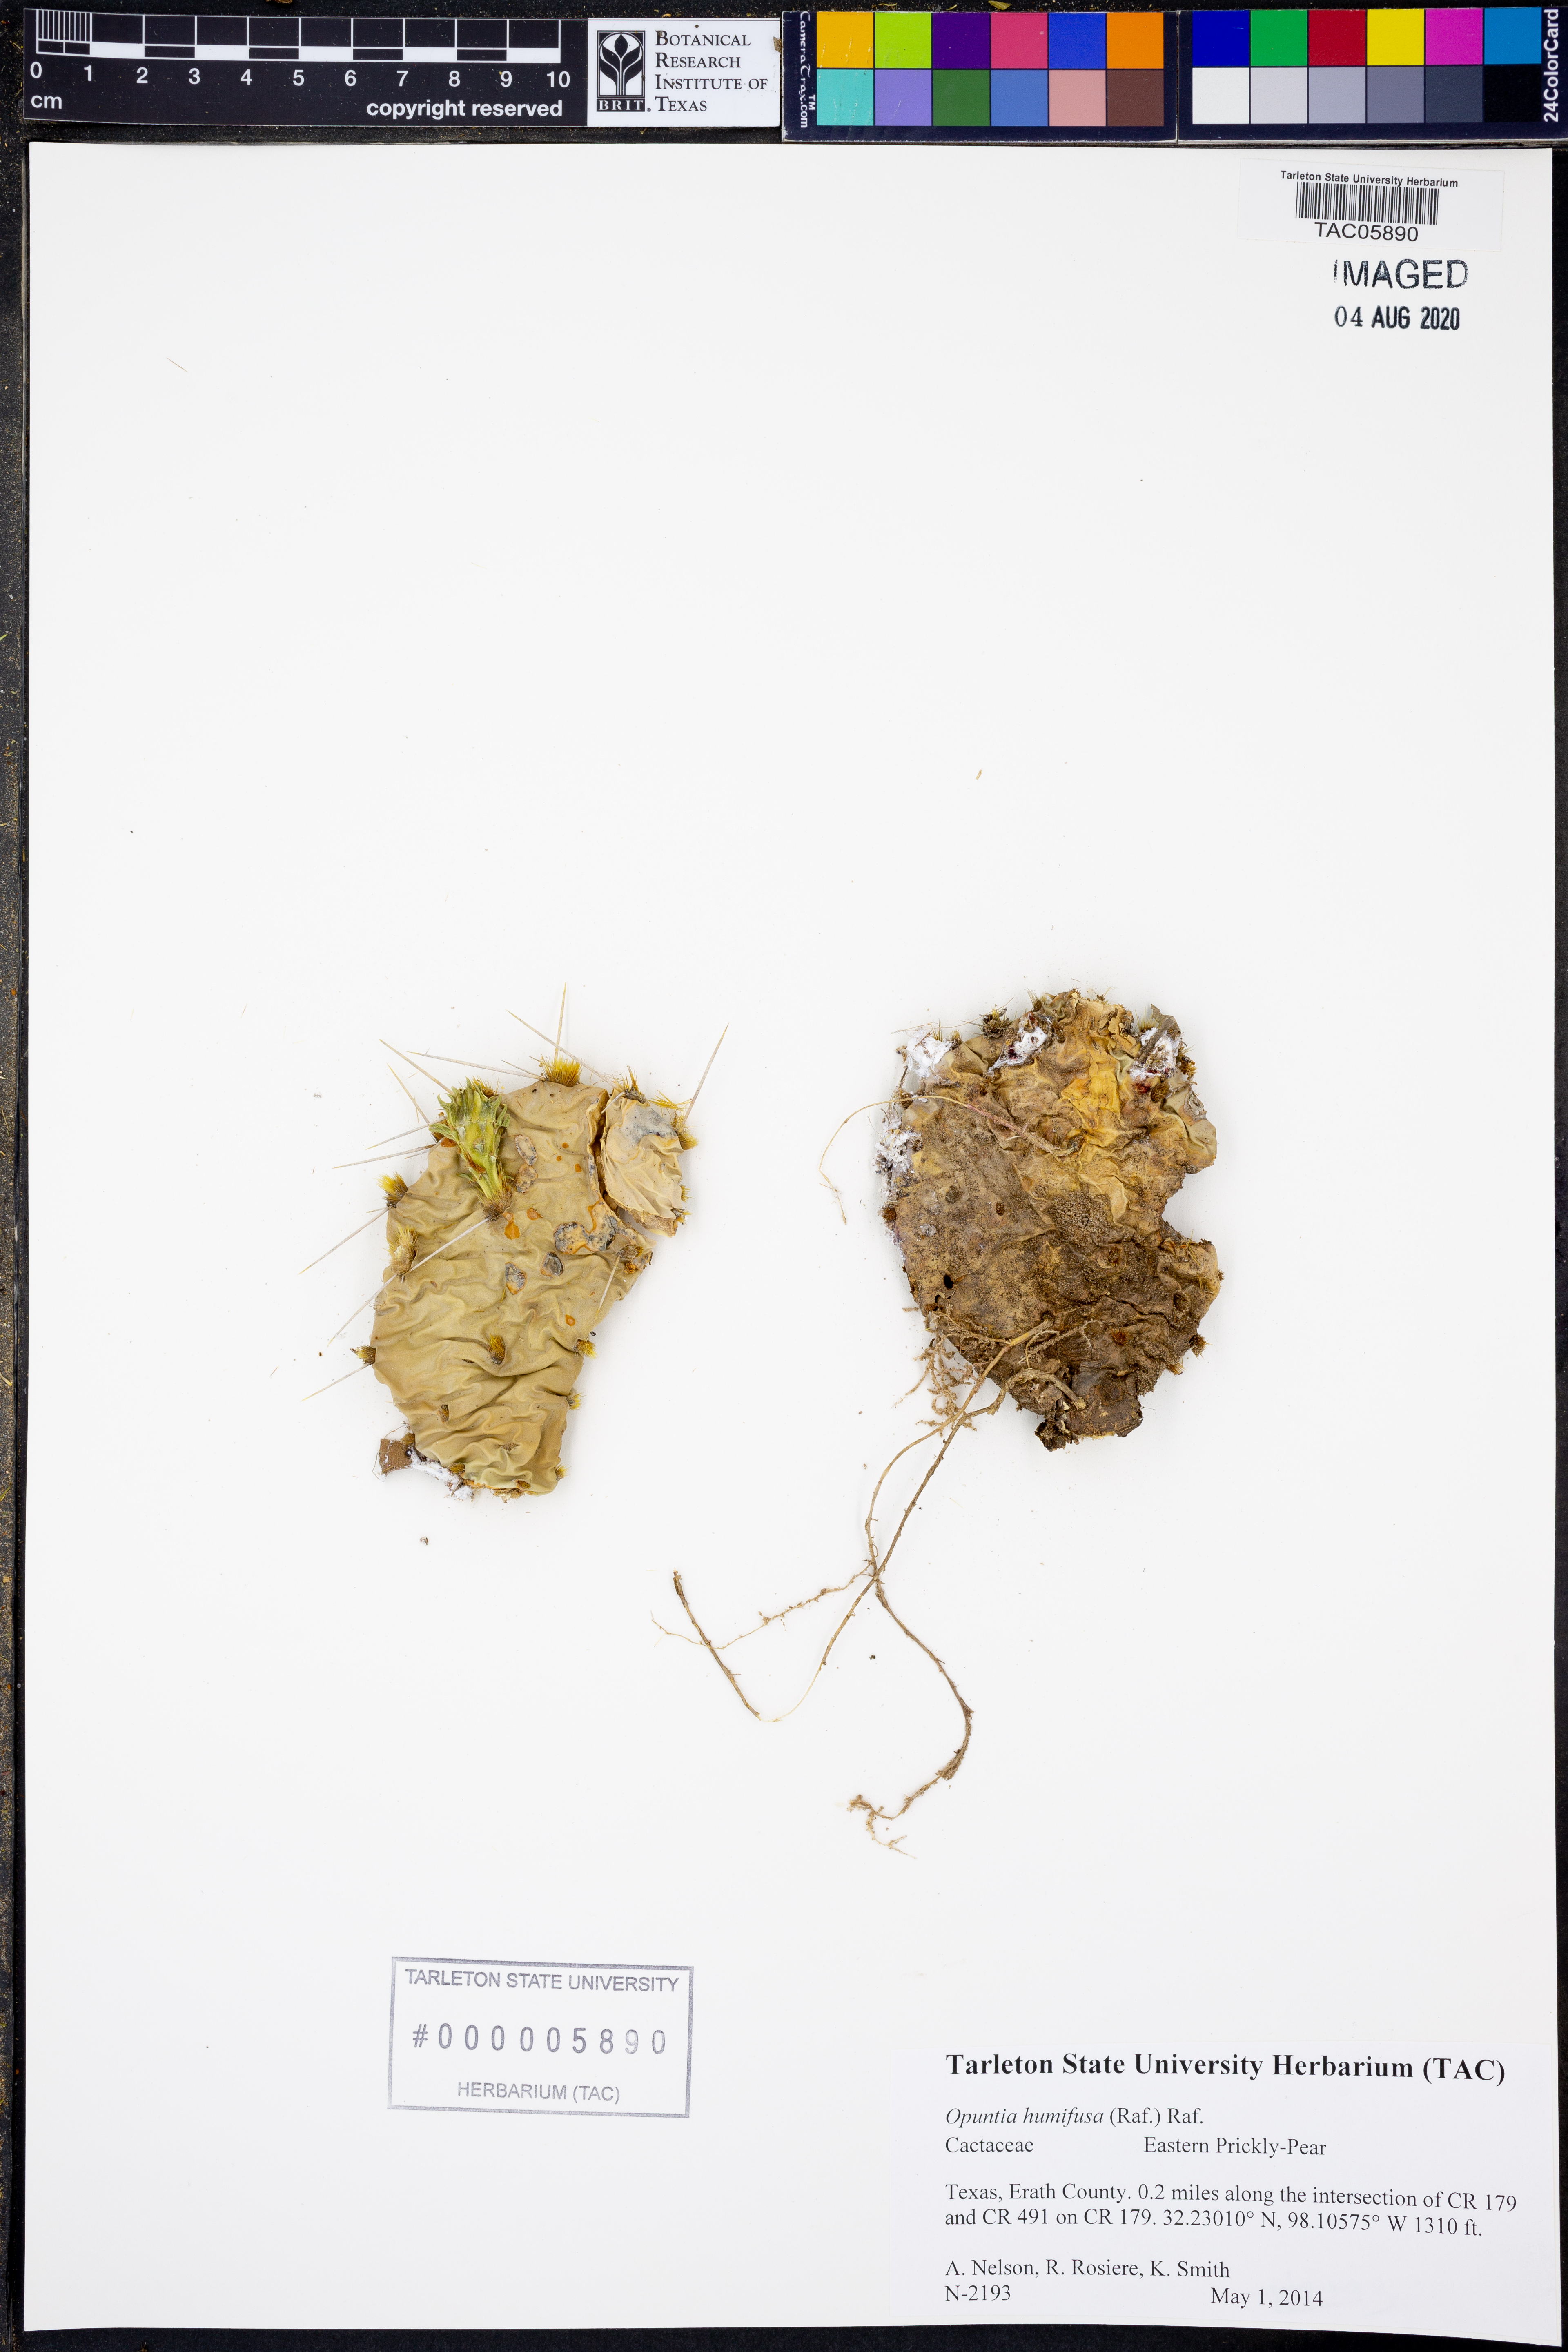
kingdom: Plantae
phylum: Tracheophyta
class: Magnoliopsida
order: Caryophyllales
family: Cactaceae
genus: Opuntia
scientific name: Opuntia humifusa
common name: Eastern prickly-pear
